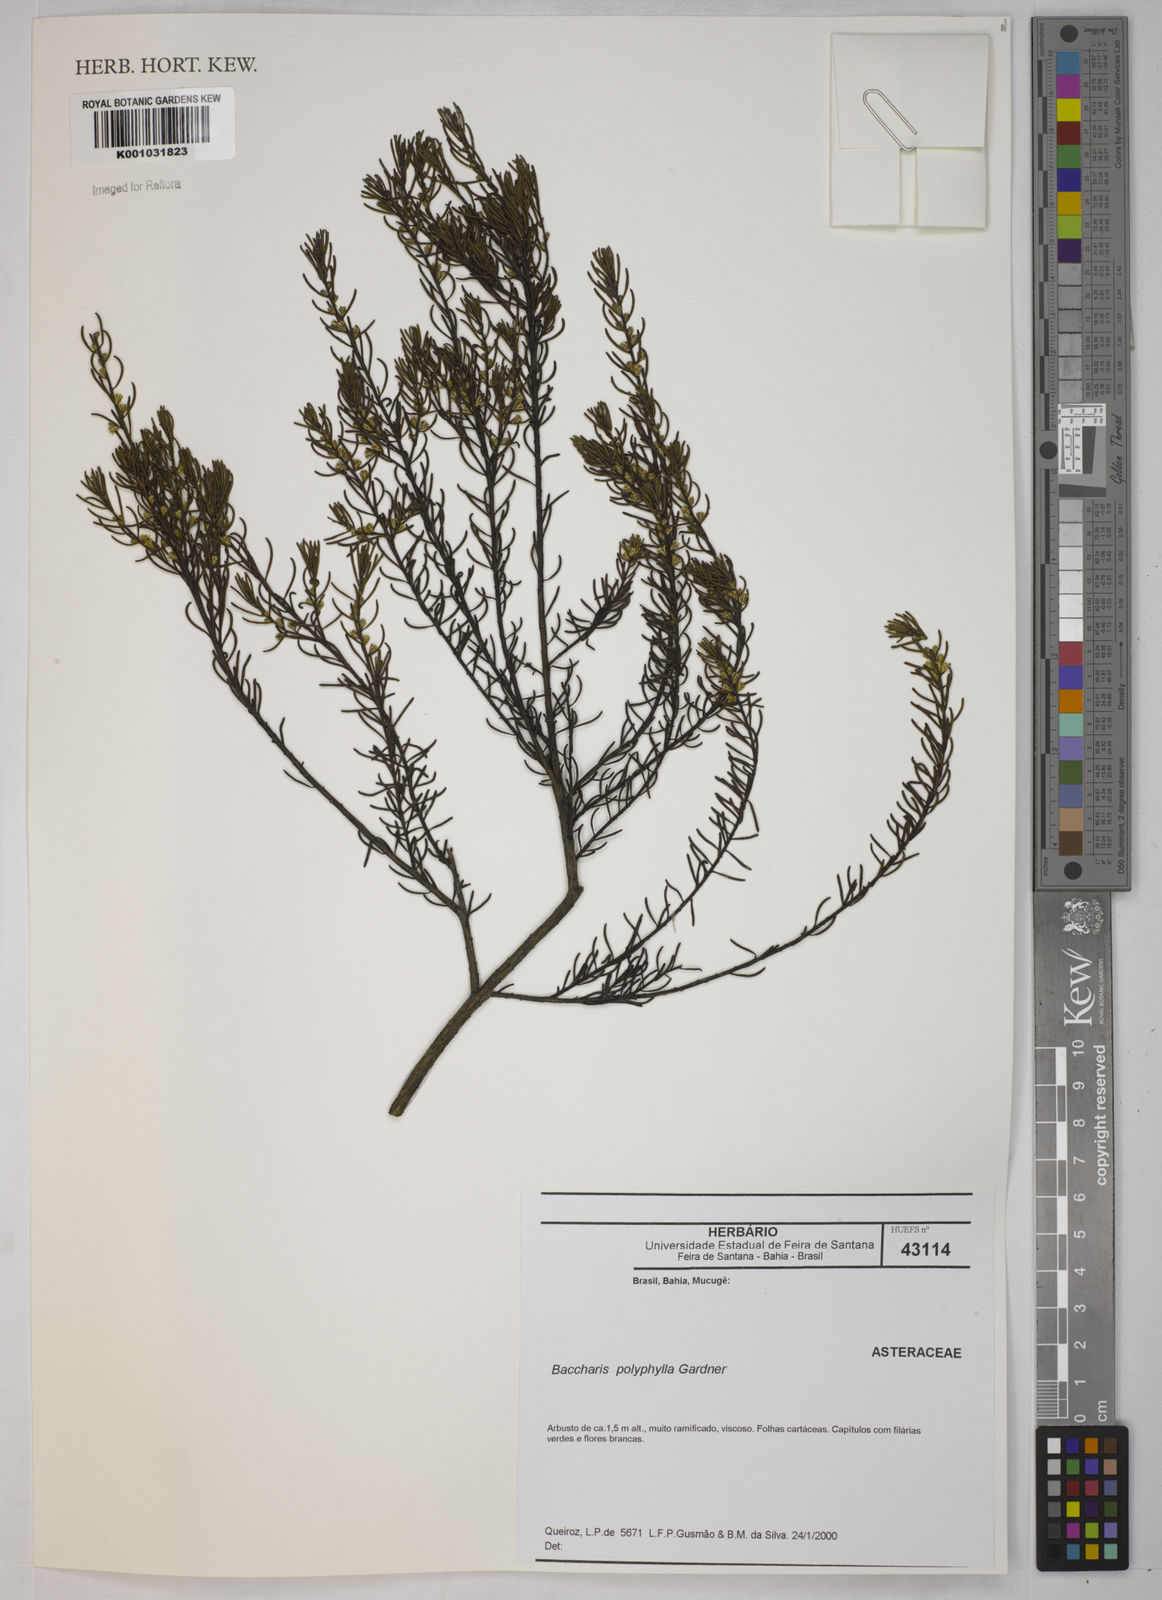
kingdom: Plantae
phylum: Tracheophyta
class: Magnoliopsida
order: Asterales
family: Asteraceae
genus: Baccharis
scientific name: Baccharis polyphylla
